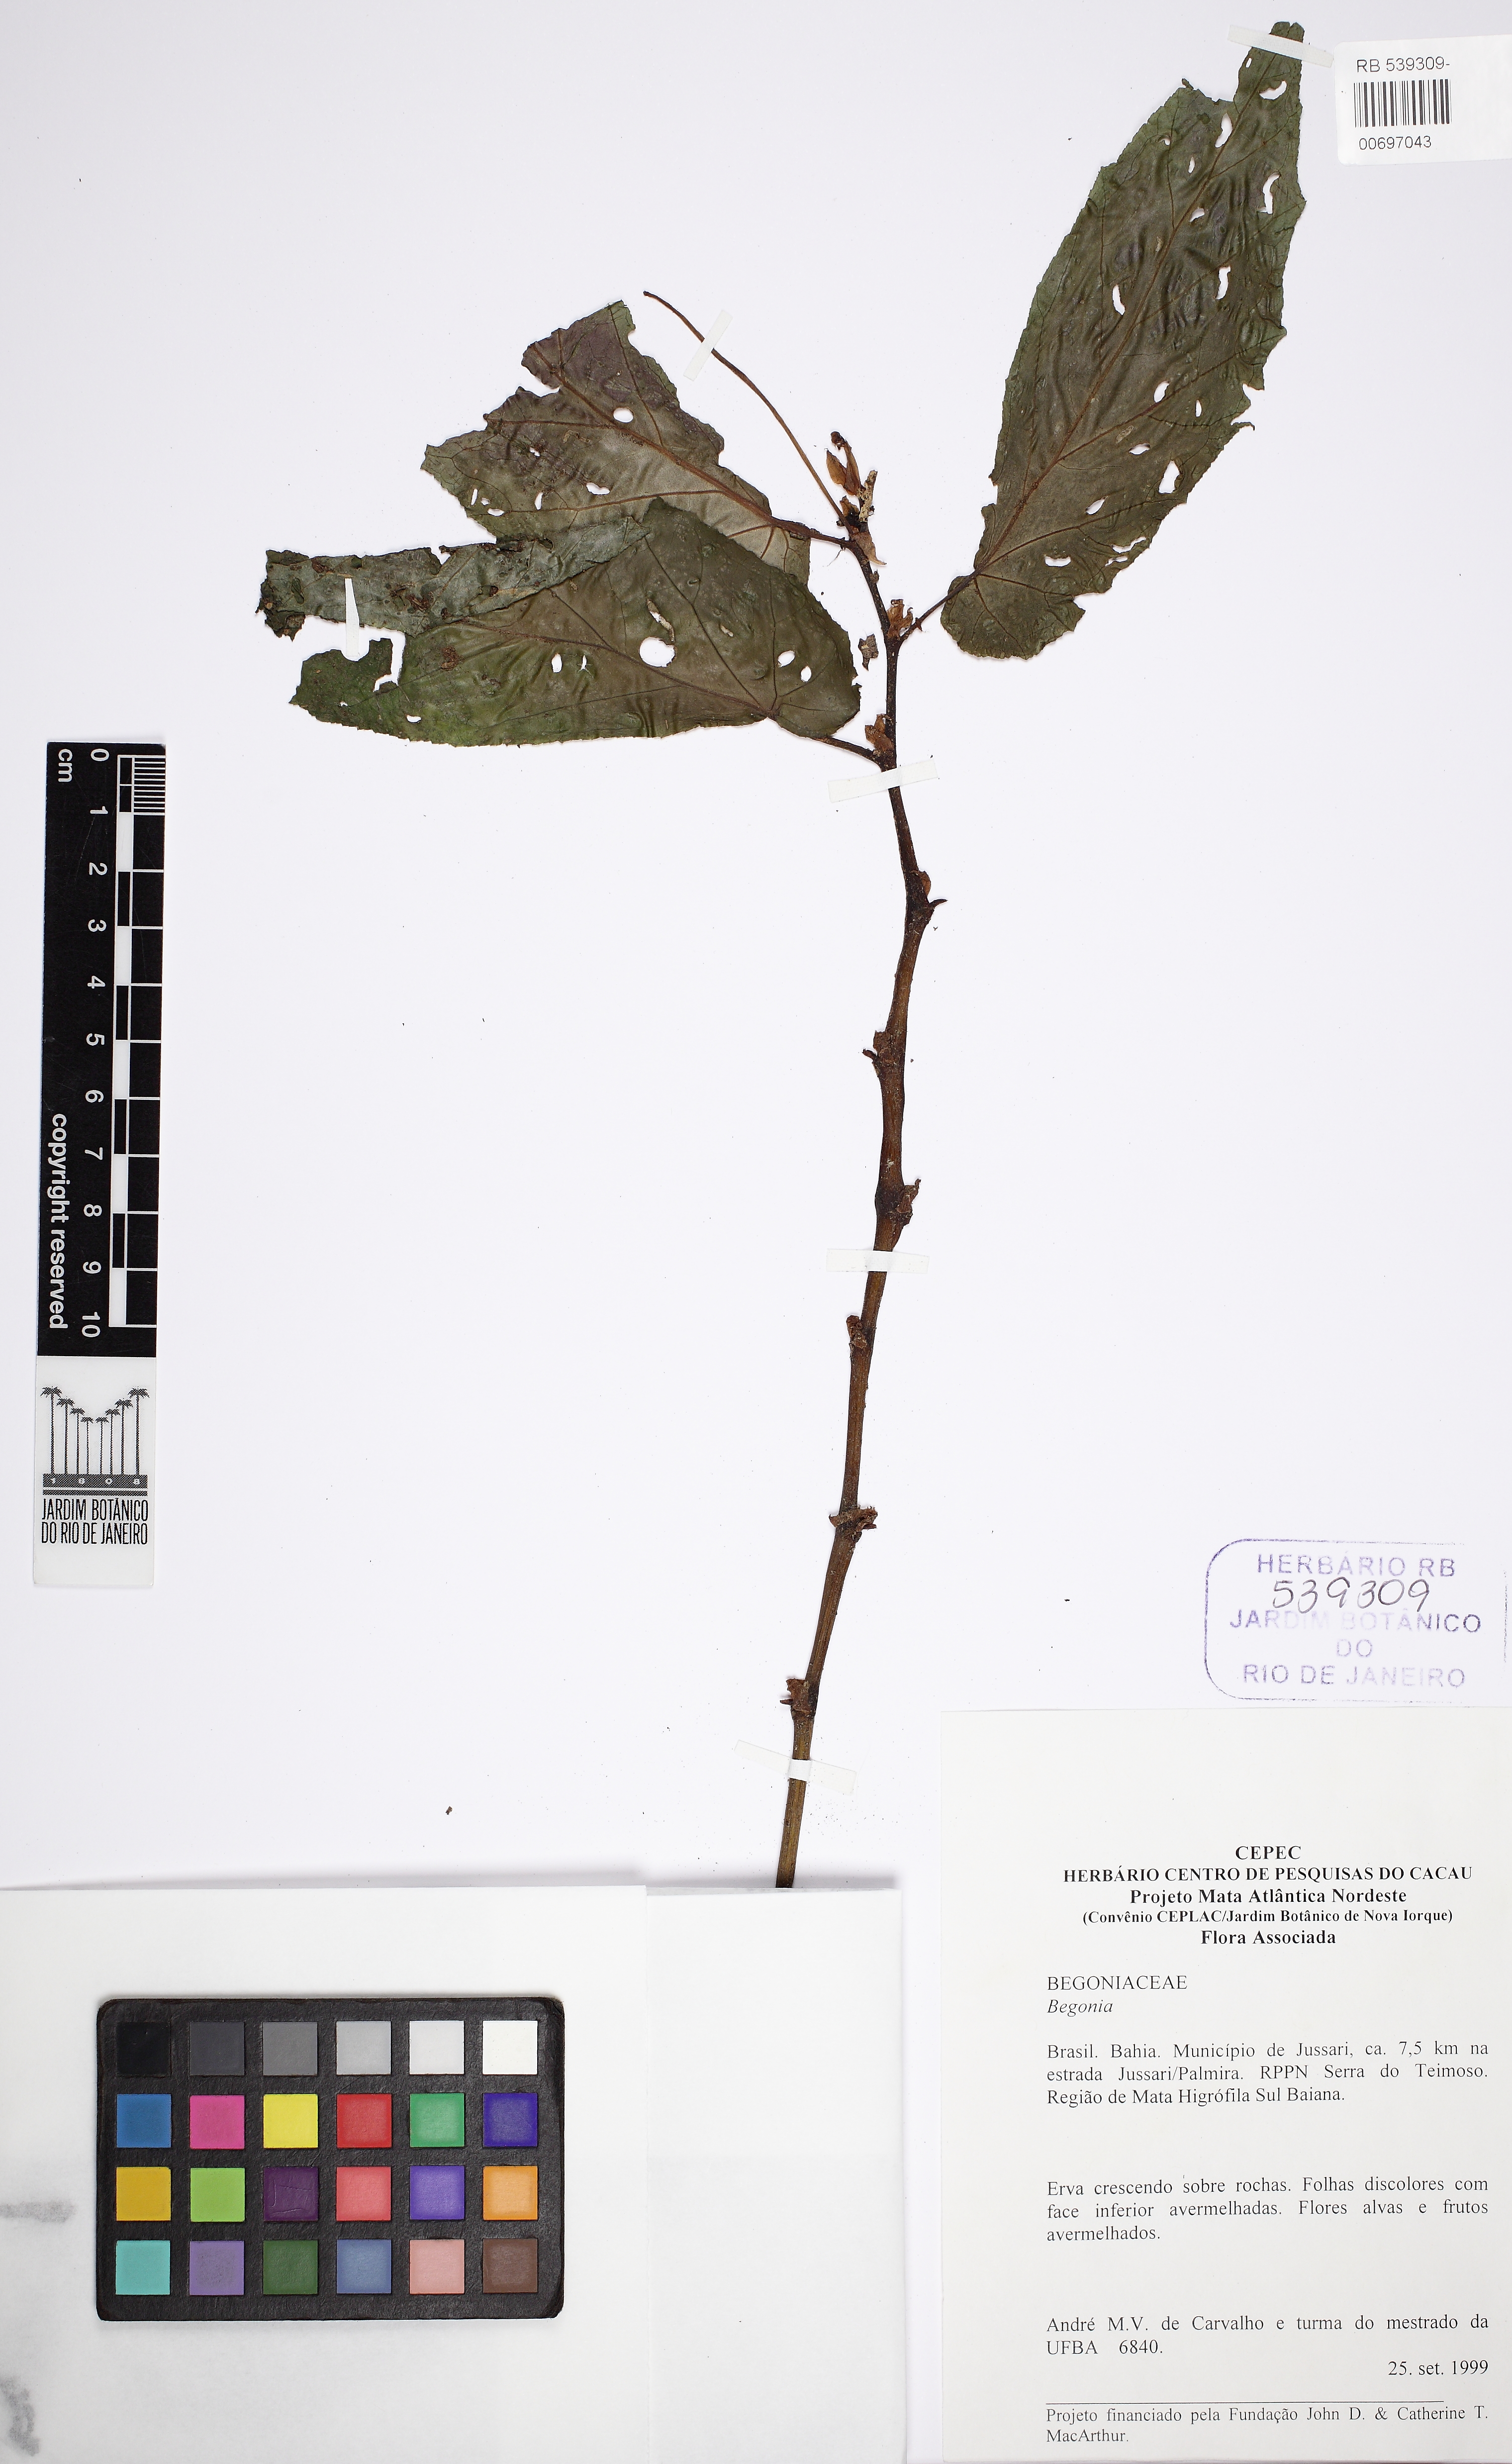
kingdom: Plantae
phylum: Tracheophyta
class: Magnoliopsida
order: Cucurbitales
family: Begoniaceae
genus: Begonia
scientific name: Begonia bahiensis
